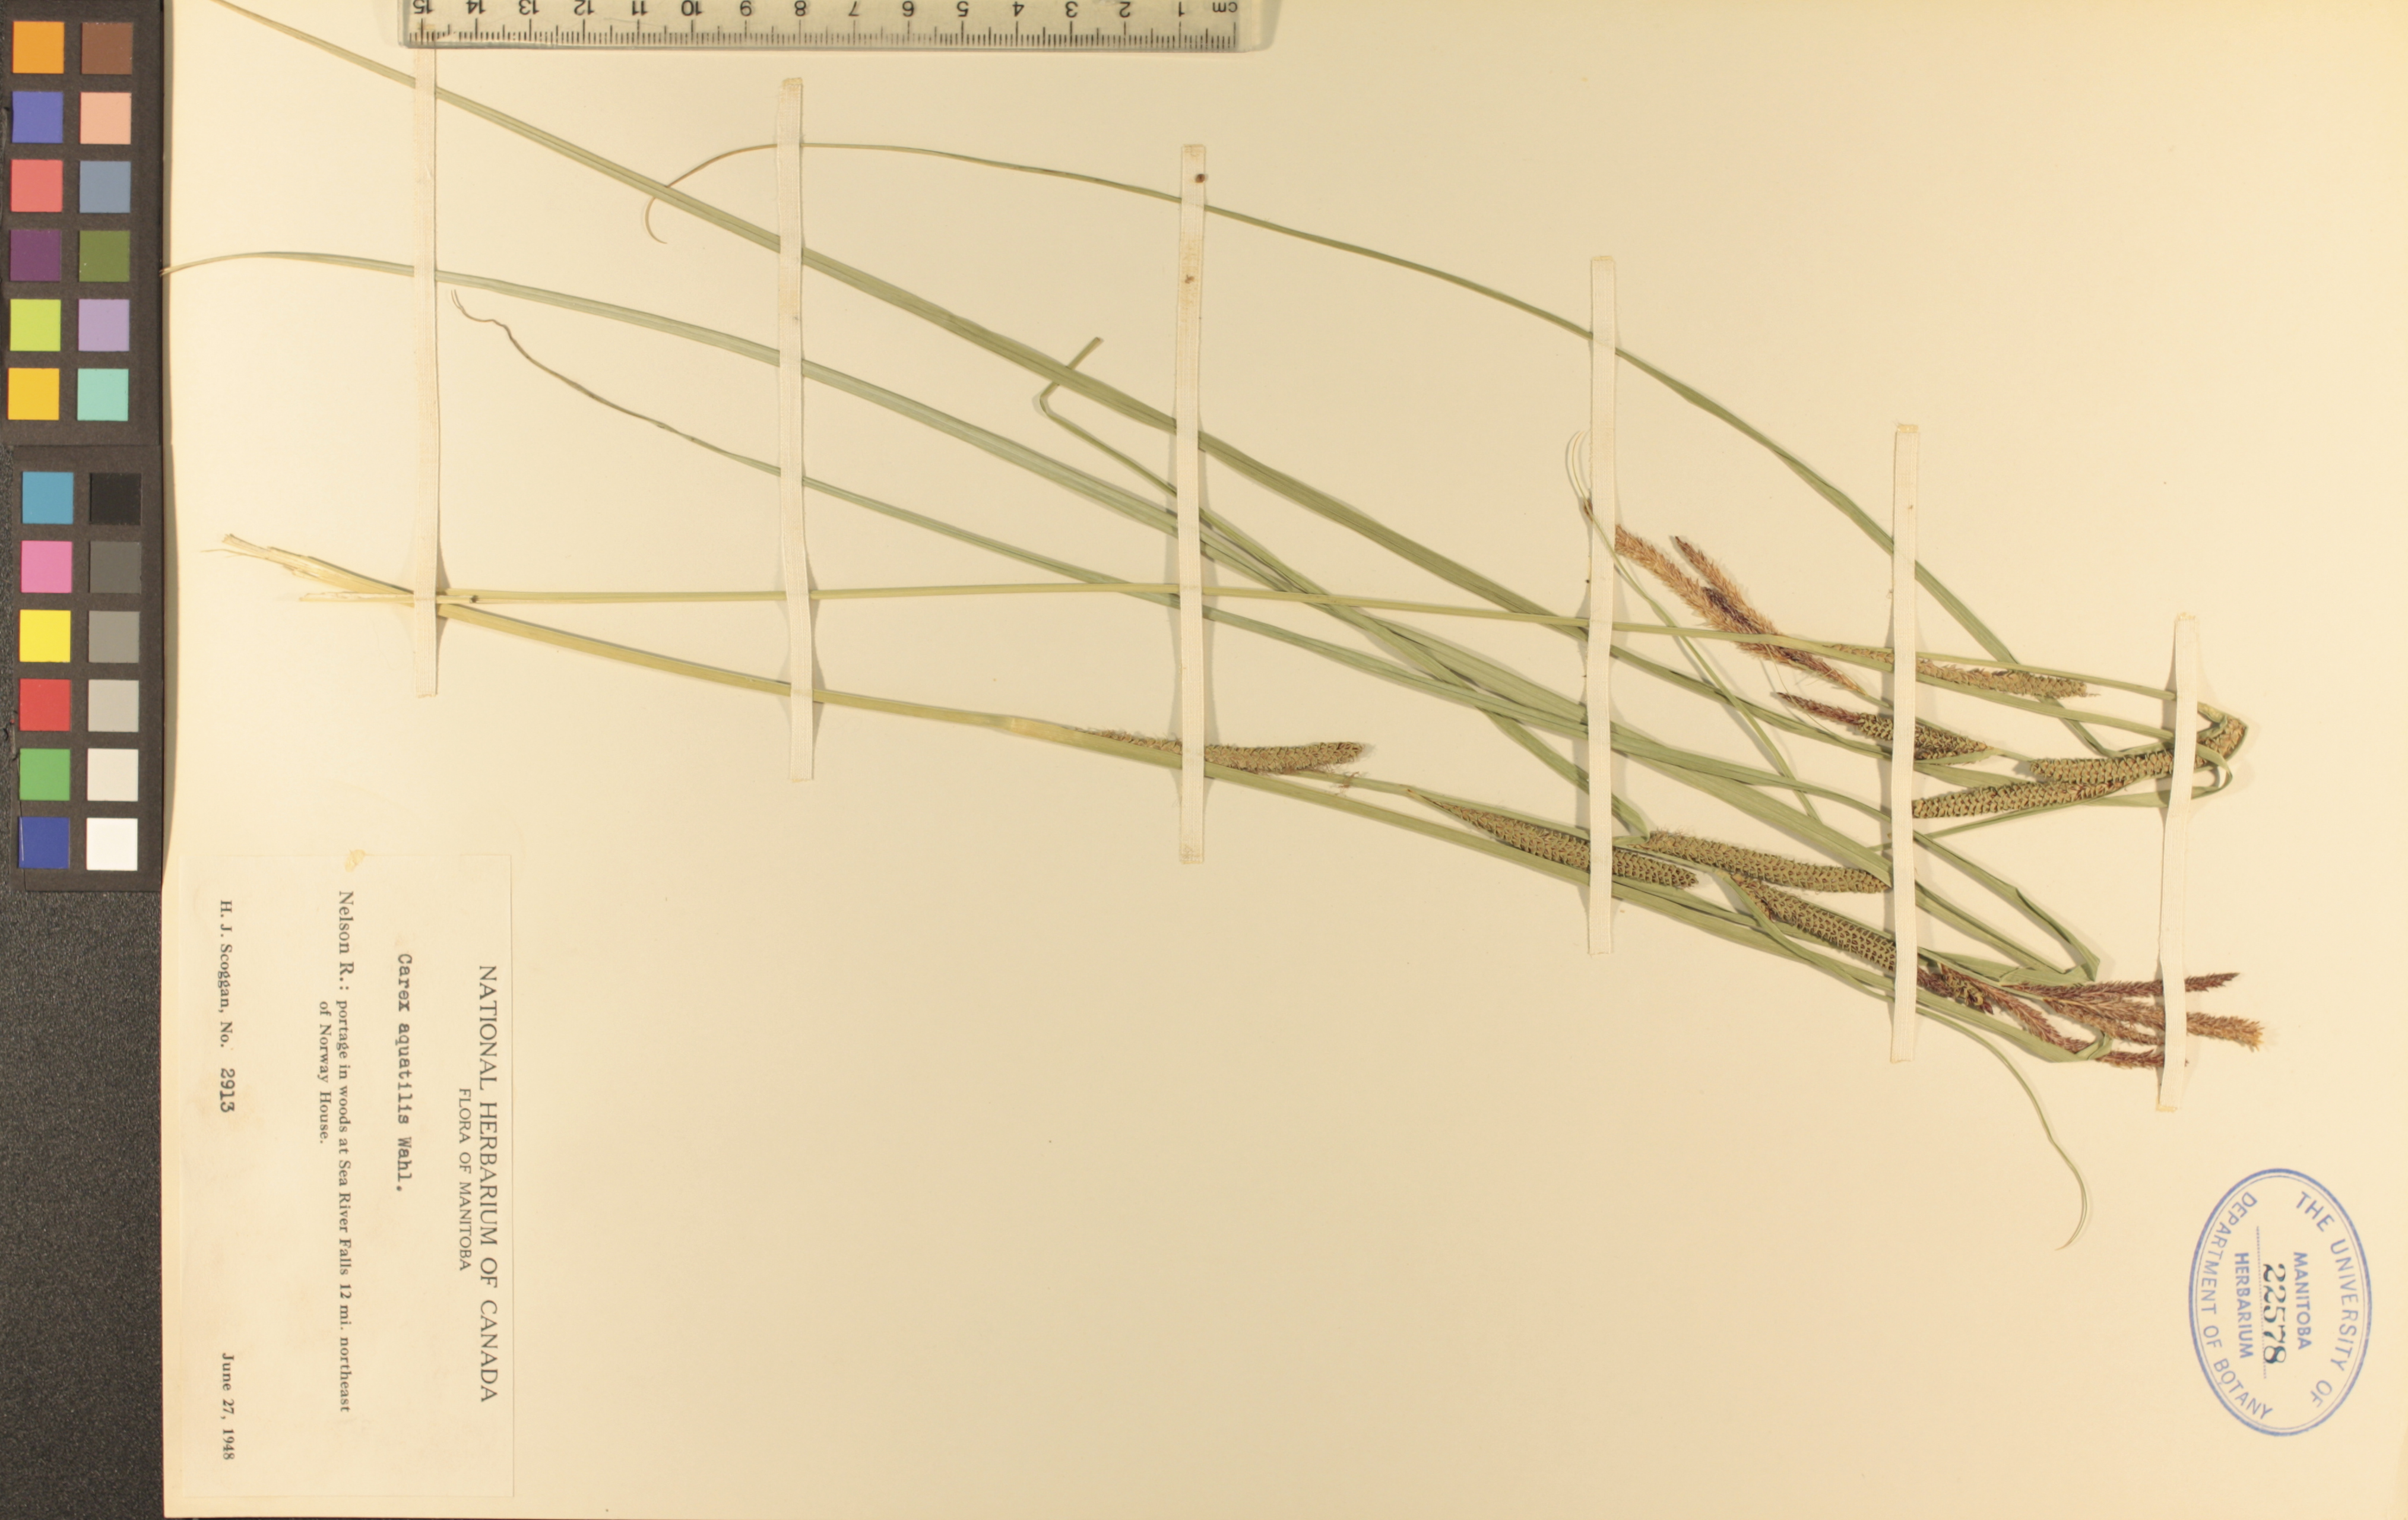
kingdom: Plantae
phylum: Tracheophyta
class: Liliopsida
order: Poales
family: Cyperaceae
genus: Carex
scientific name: Carex aquatilis
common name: Water sedge
